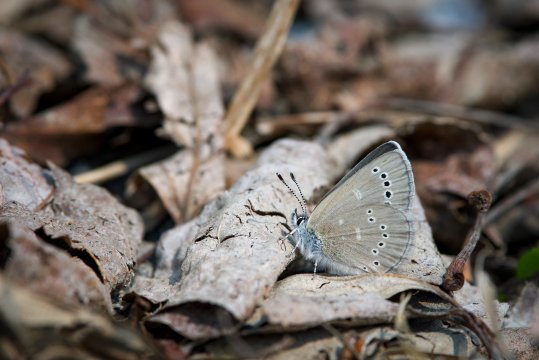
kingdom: Animalia
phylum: Arthropoda
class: Insecta
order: Lepidoptera
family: Lycaenidae
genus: Glaucopsyche
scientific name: Glaucopsyche lygdamus
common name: Silvery Blue
